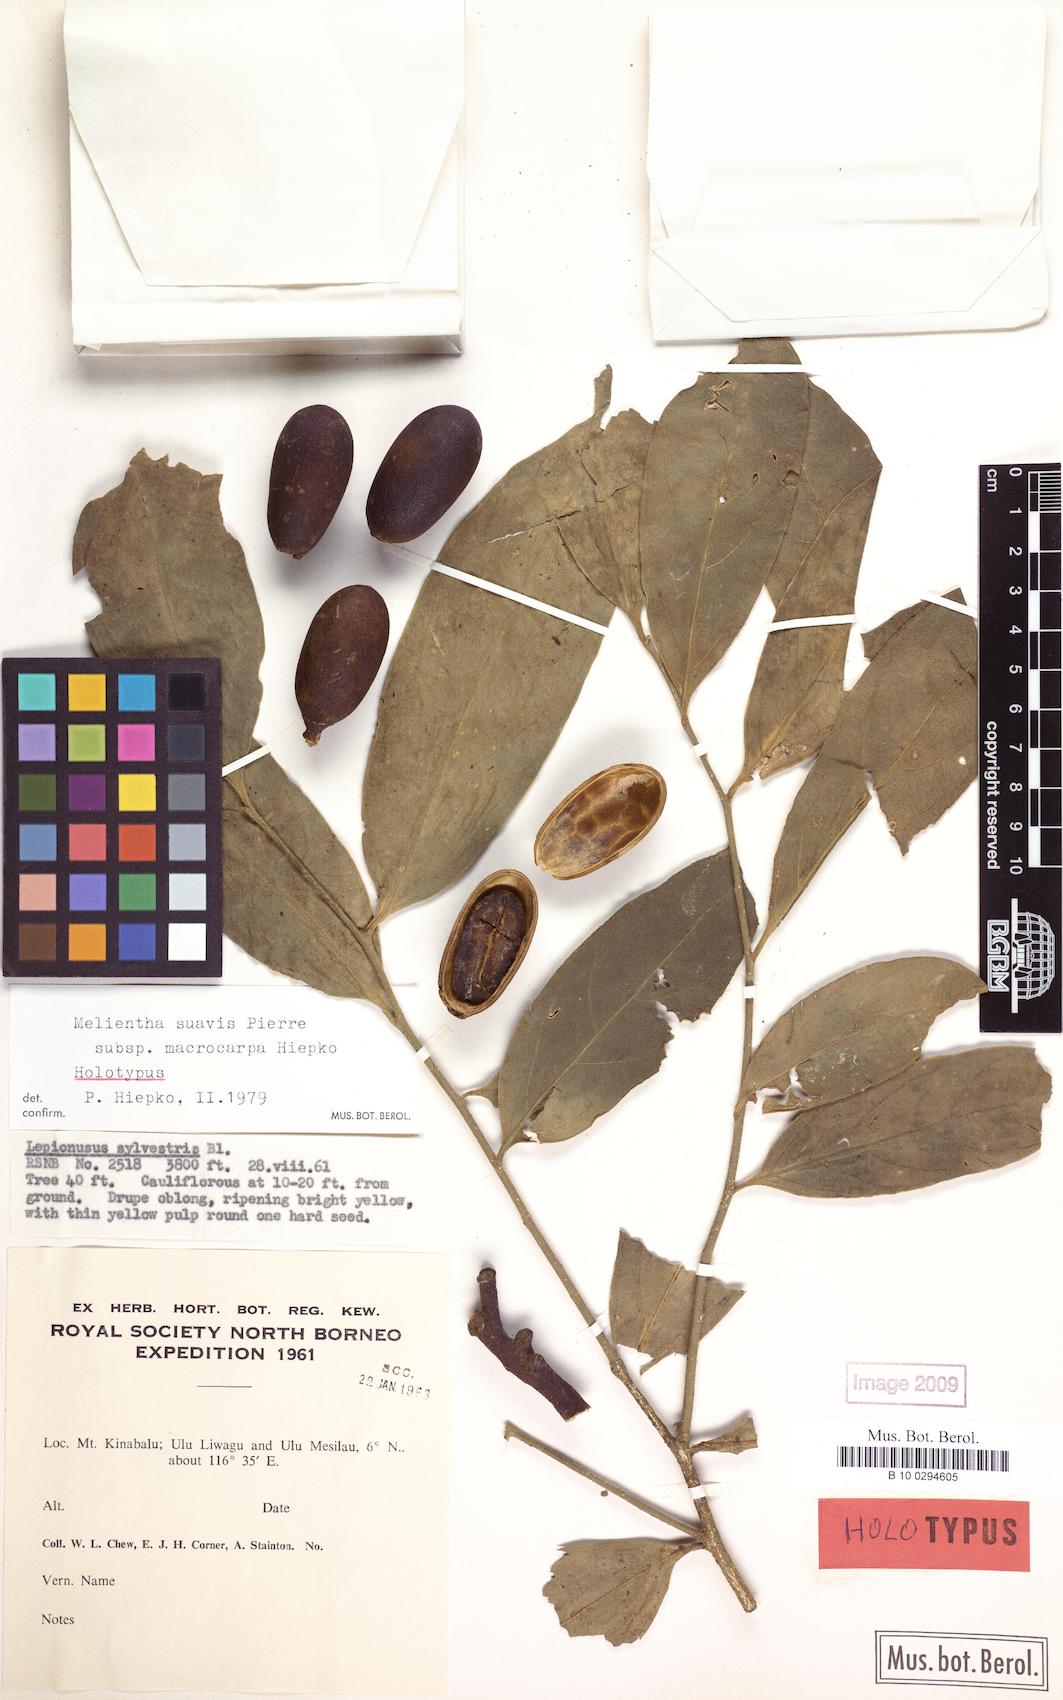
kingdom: Plantae
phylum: Tracheophyta
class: Magnoliopsida
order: Santalales
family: Opiliaceae
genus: Melientha
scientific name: Melientha suavis
